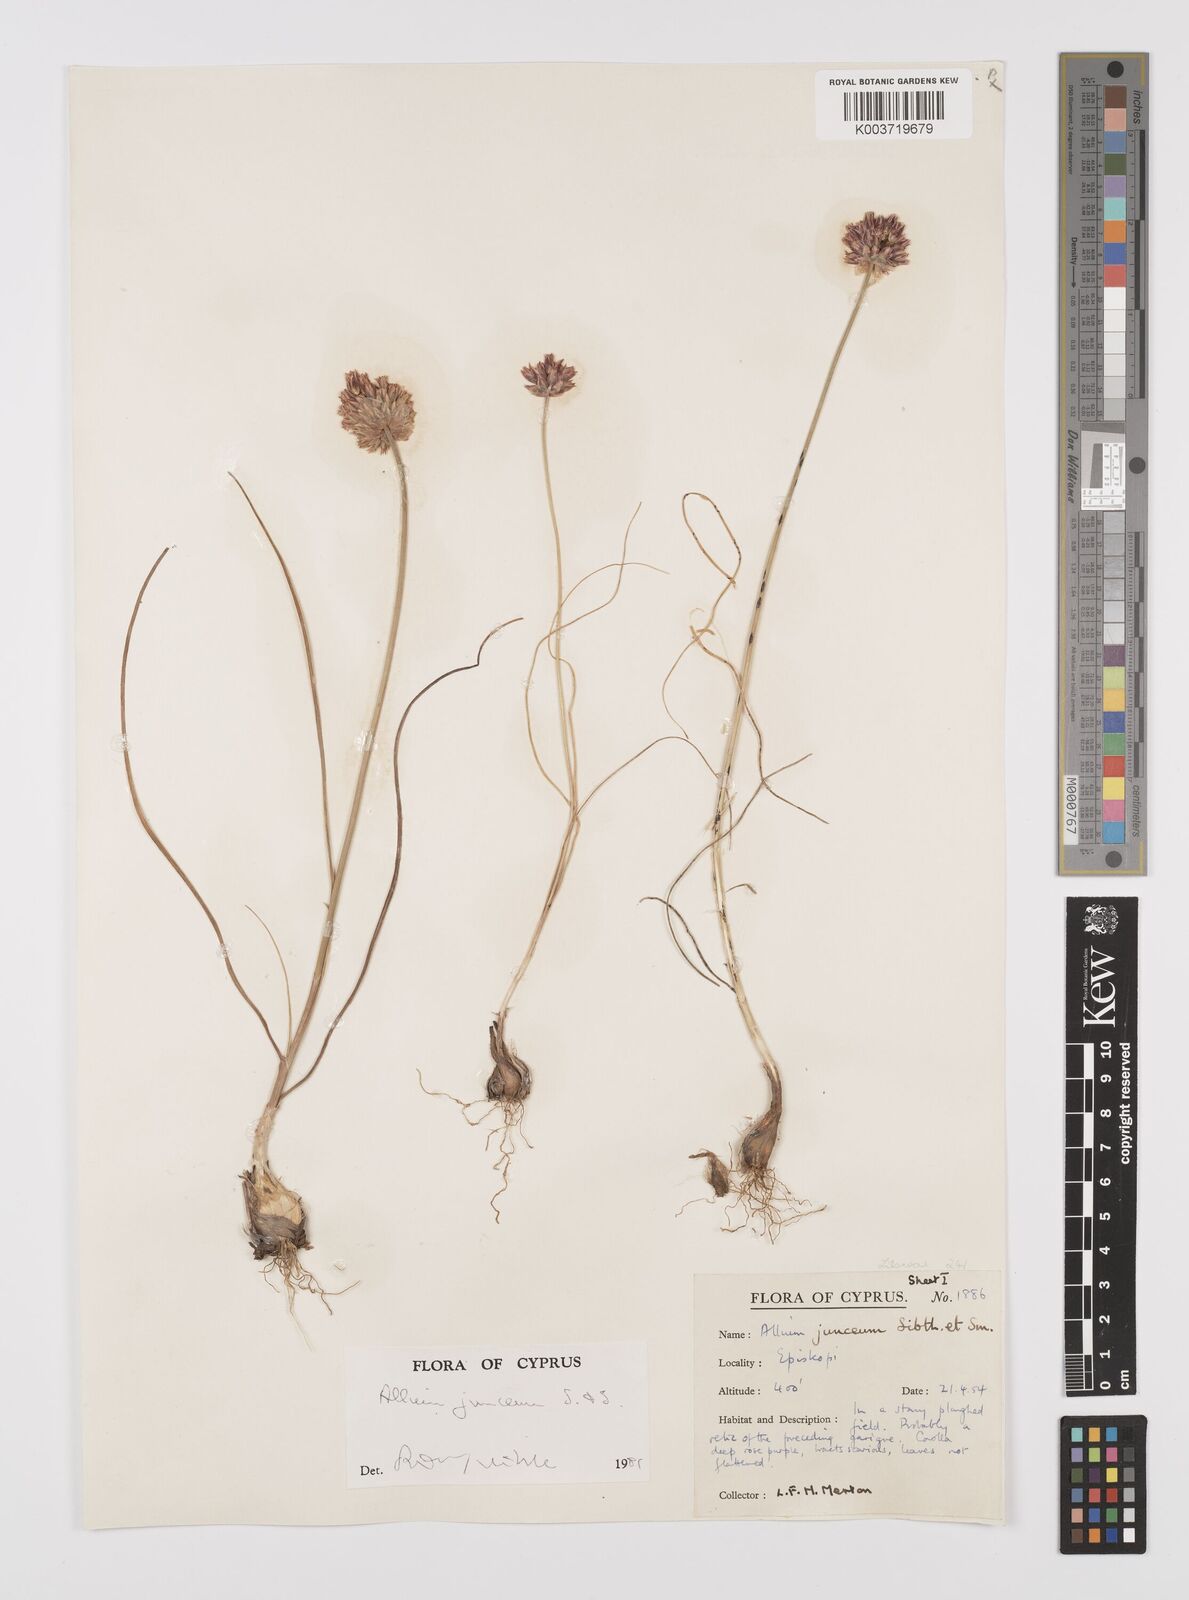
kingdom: Plantae
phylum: Tracheophyta
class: Liliopsida
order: Asparagales
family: Amaryllidaceae
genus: Allium
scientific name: Allium junceum
